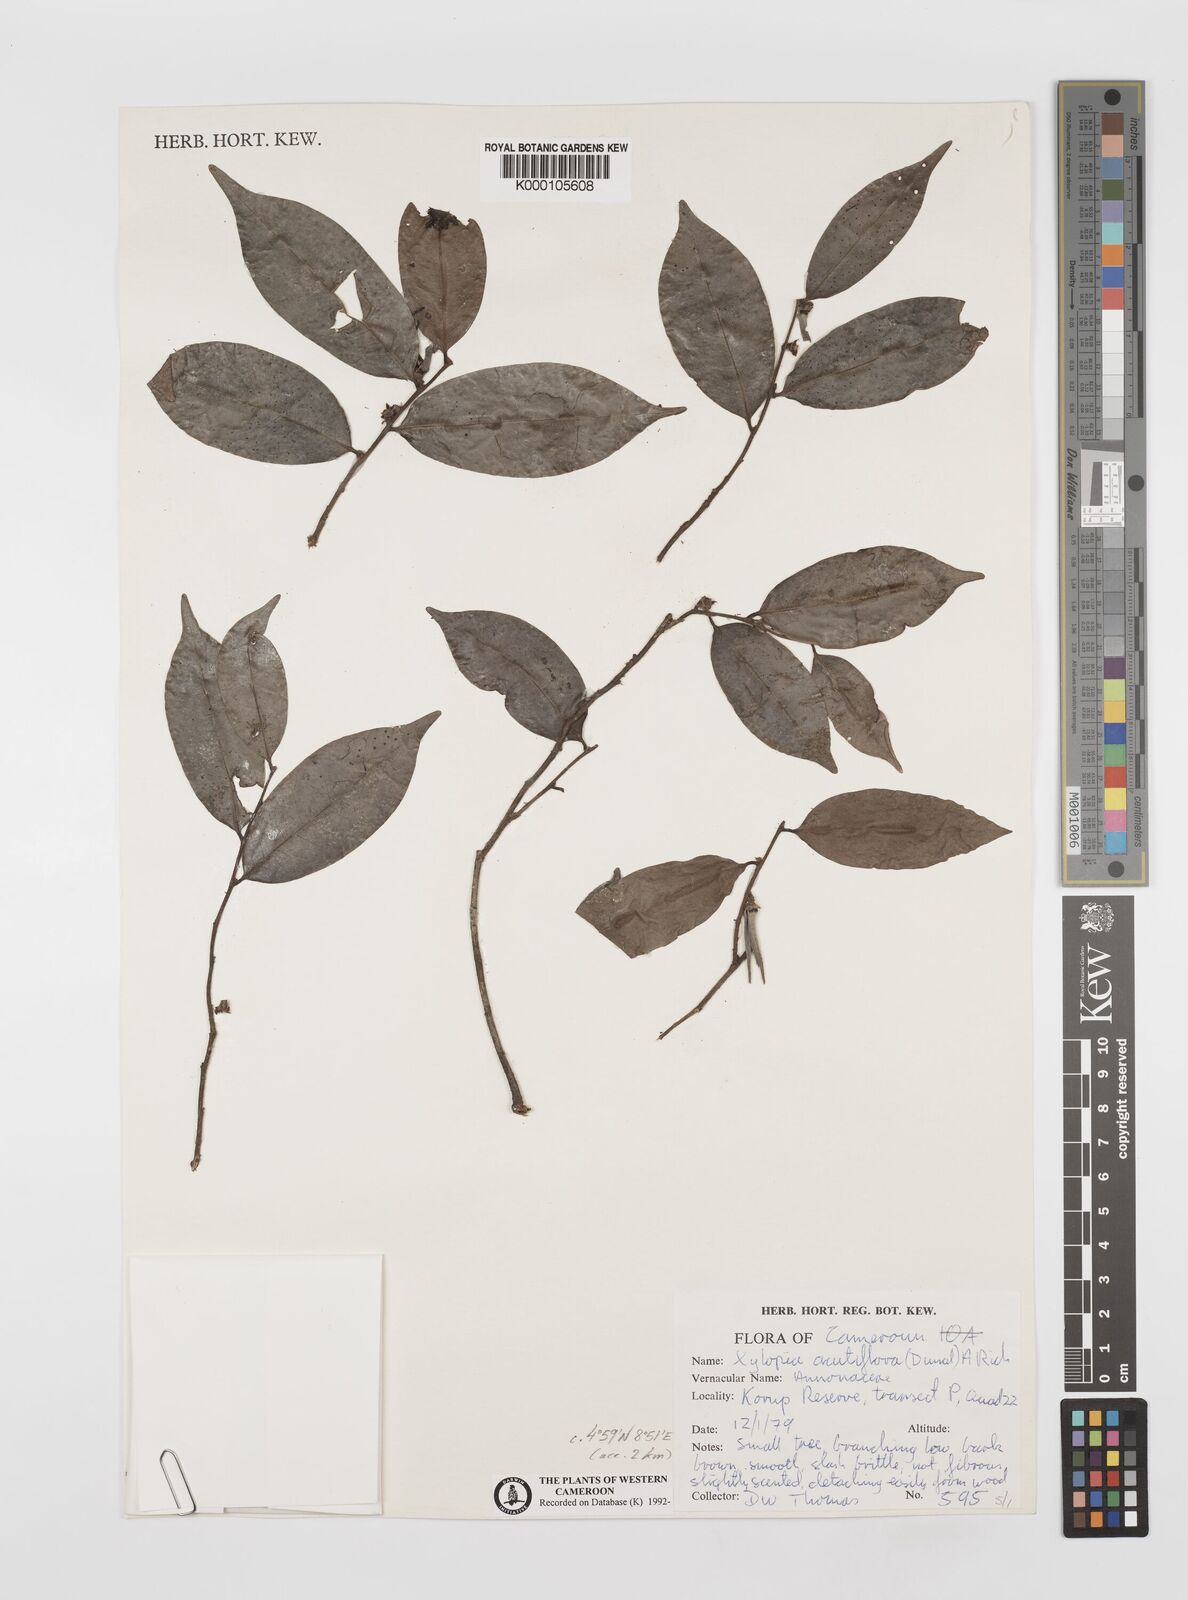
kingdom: Plantae
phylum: Tracheophyta
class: Magnoliopsida
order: Magnoliales
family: Annonaceae
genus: Xylopia
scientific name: Xylopia acutiflora
